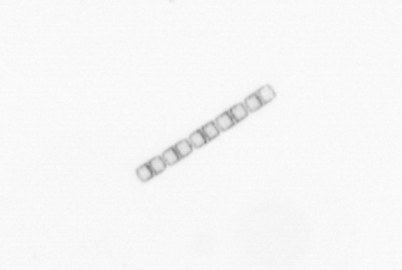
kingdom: Chromista
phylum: Ochrophyta
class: Bacillariophyceae
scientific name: Bacillariophyceae
